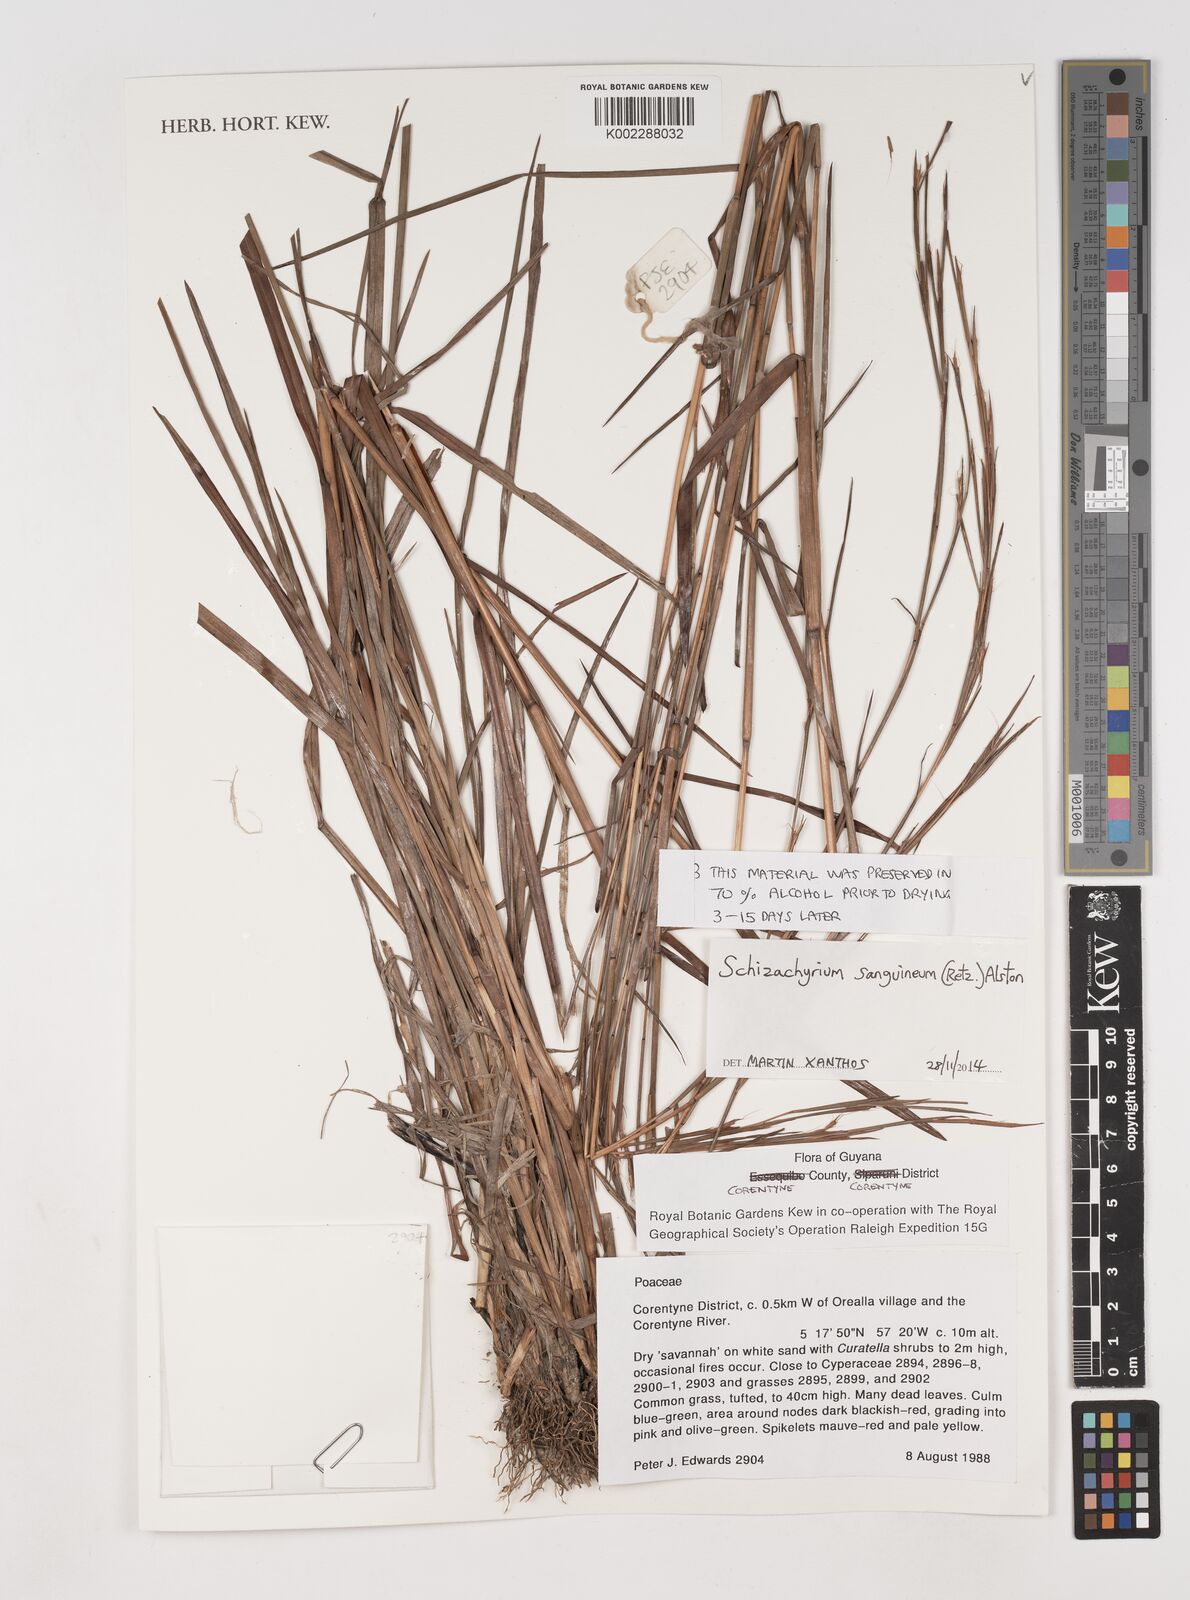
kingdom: Plantae
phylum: Tracheophyta
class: Liliopsida
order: Poales
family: Poaceae
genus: Schizachyrium
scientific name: Schizachyrium sanguineum
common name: Crimson bluestem
